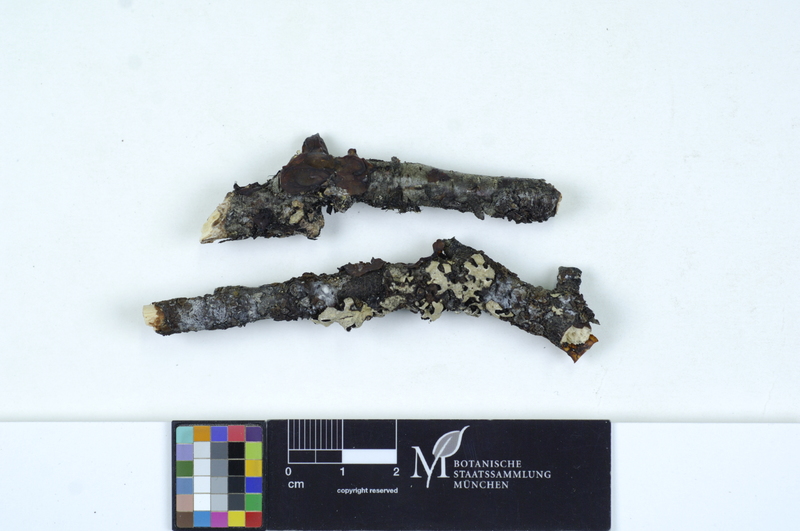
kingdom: Plantae
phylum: Tracheophyta
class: Magnoliopsida
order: Fagales
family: Betulaceae
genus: Betula
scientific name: Betula
